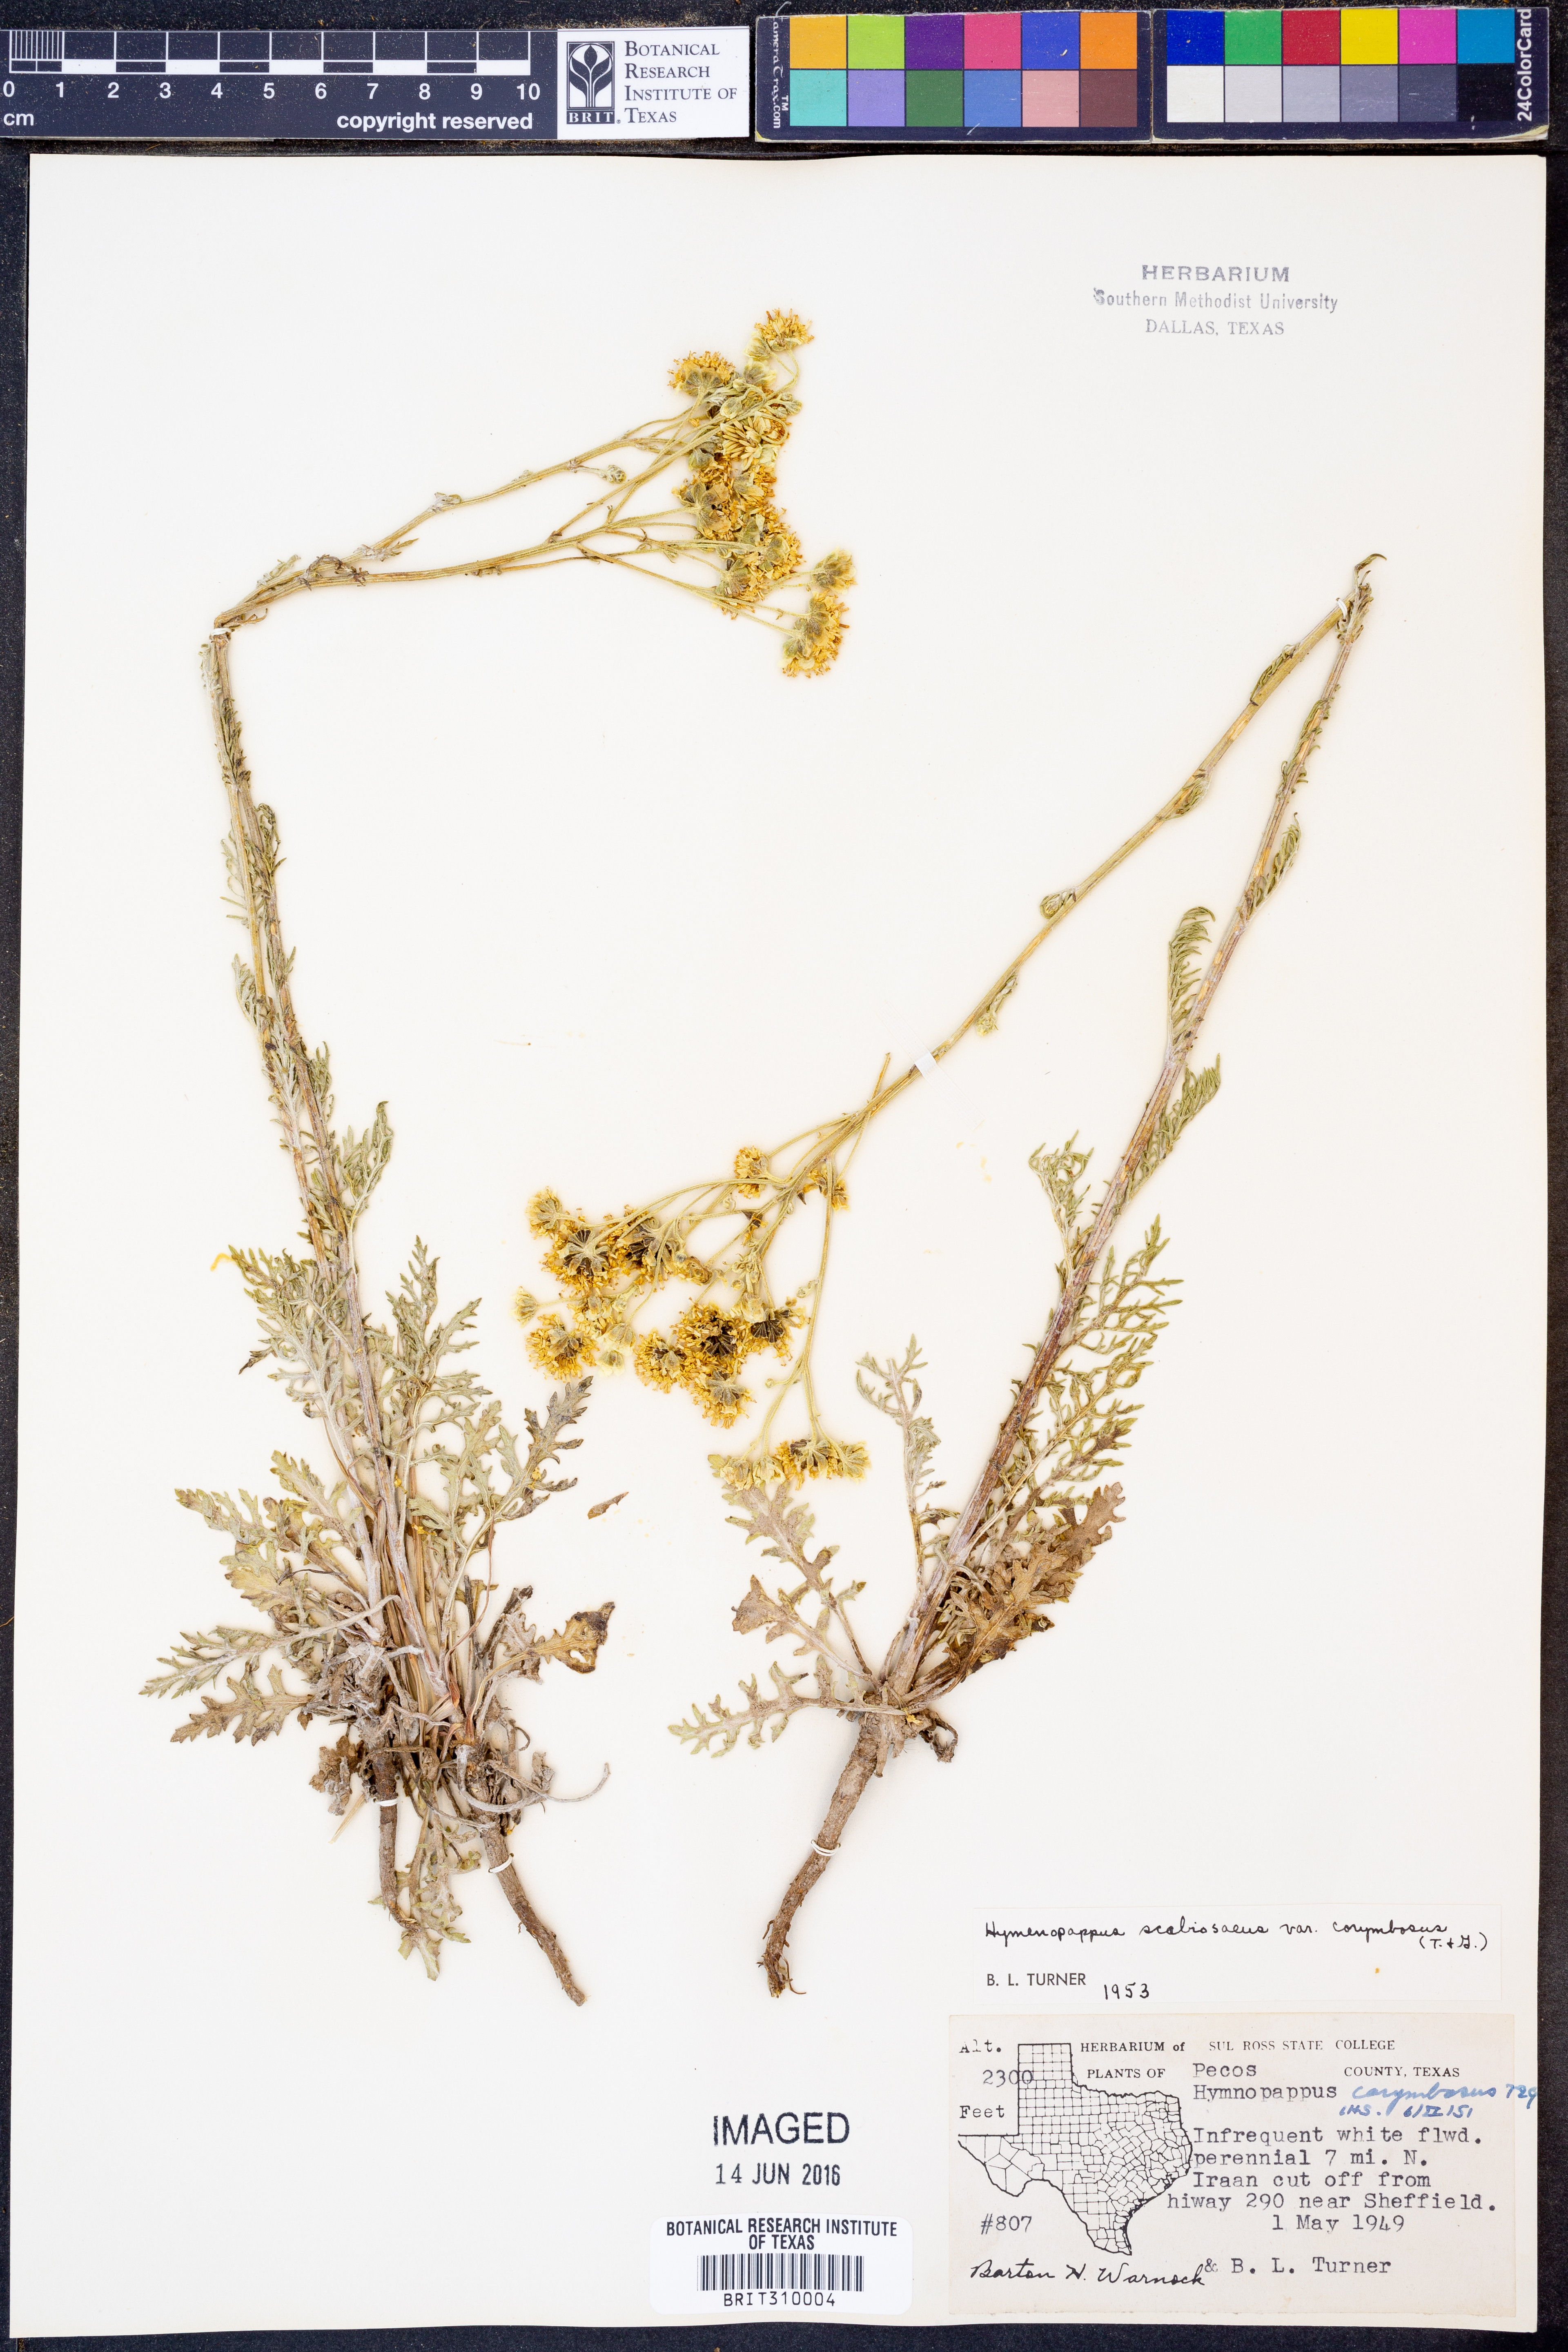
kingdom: Plantae
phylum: Tracheophyta
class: Magnoliopsida
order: Asterales
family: Asteraceae
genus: Hymenopappus
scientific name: Hymenopappus scabiosaeus
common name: Carolina woollywhite
